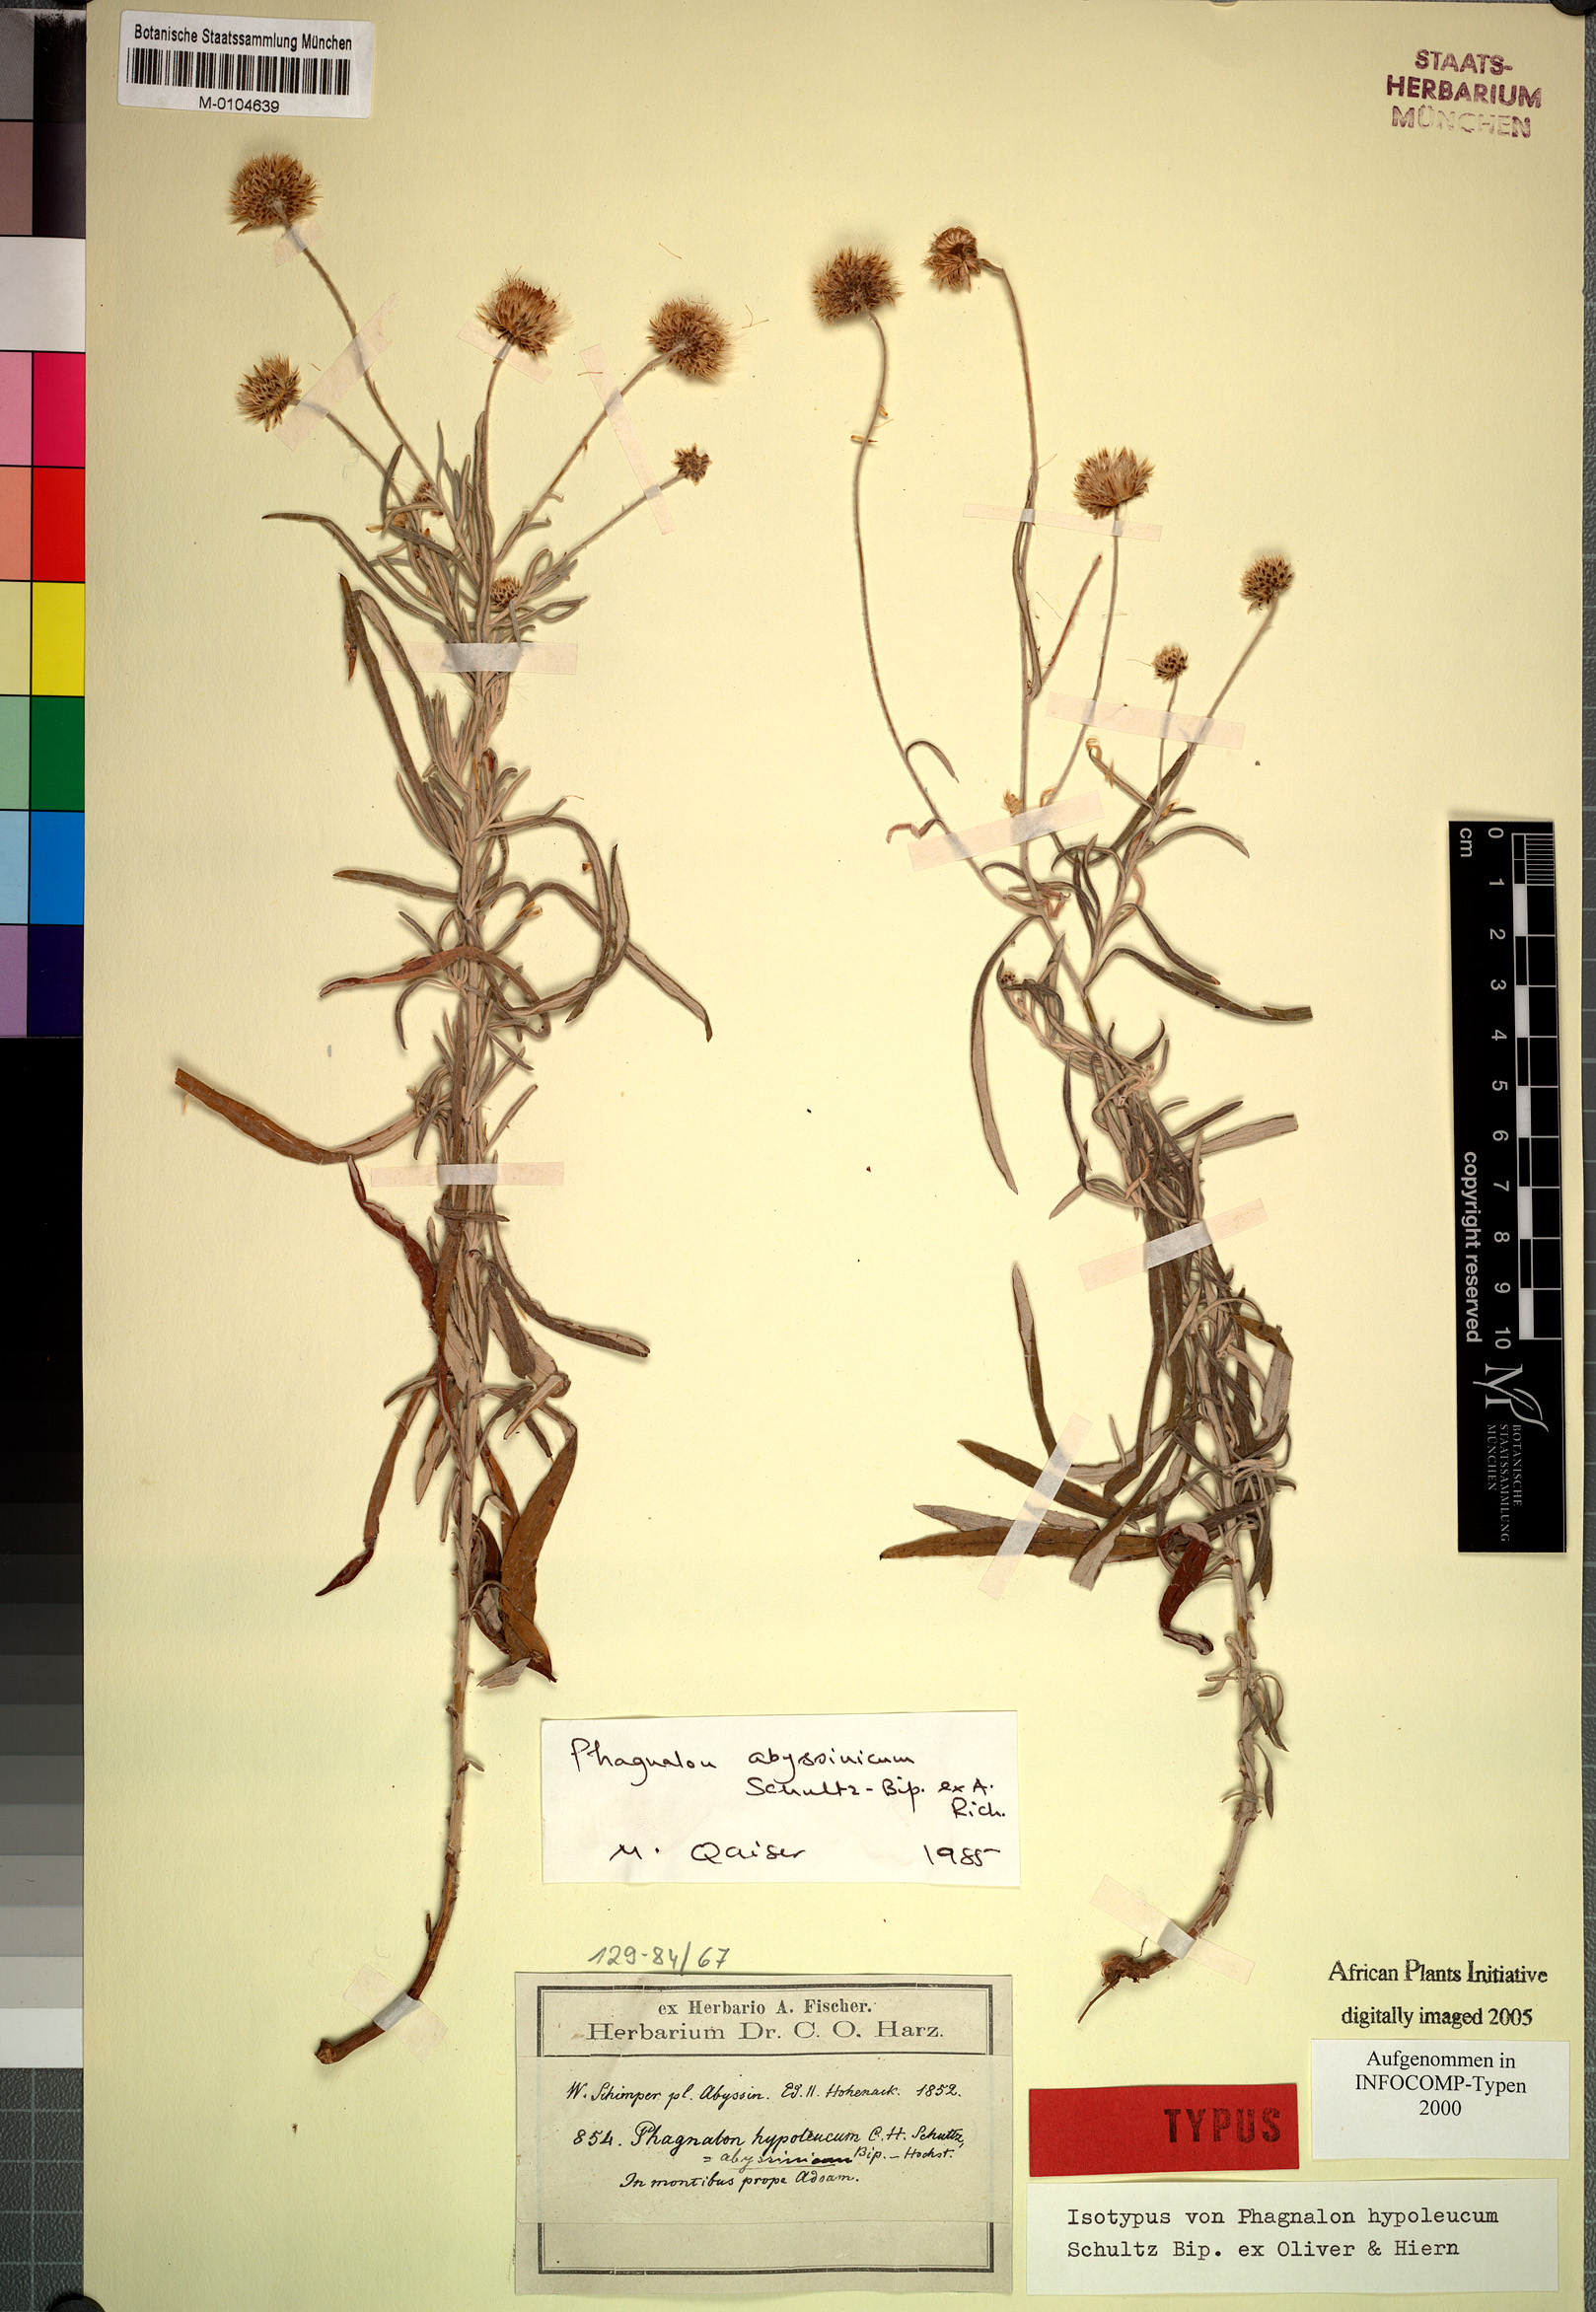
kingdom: Plantae
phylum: Tracheophyta
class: Magnoliopsida
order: Asterales
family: Asteraceae
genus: Phagnalon
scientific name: Phagnalon abyssinicum
